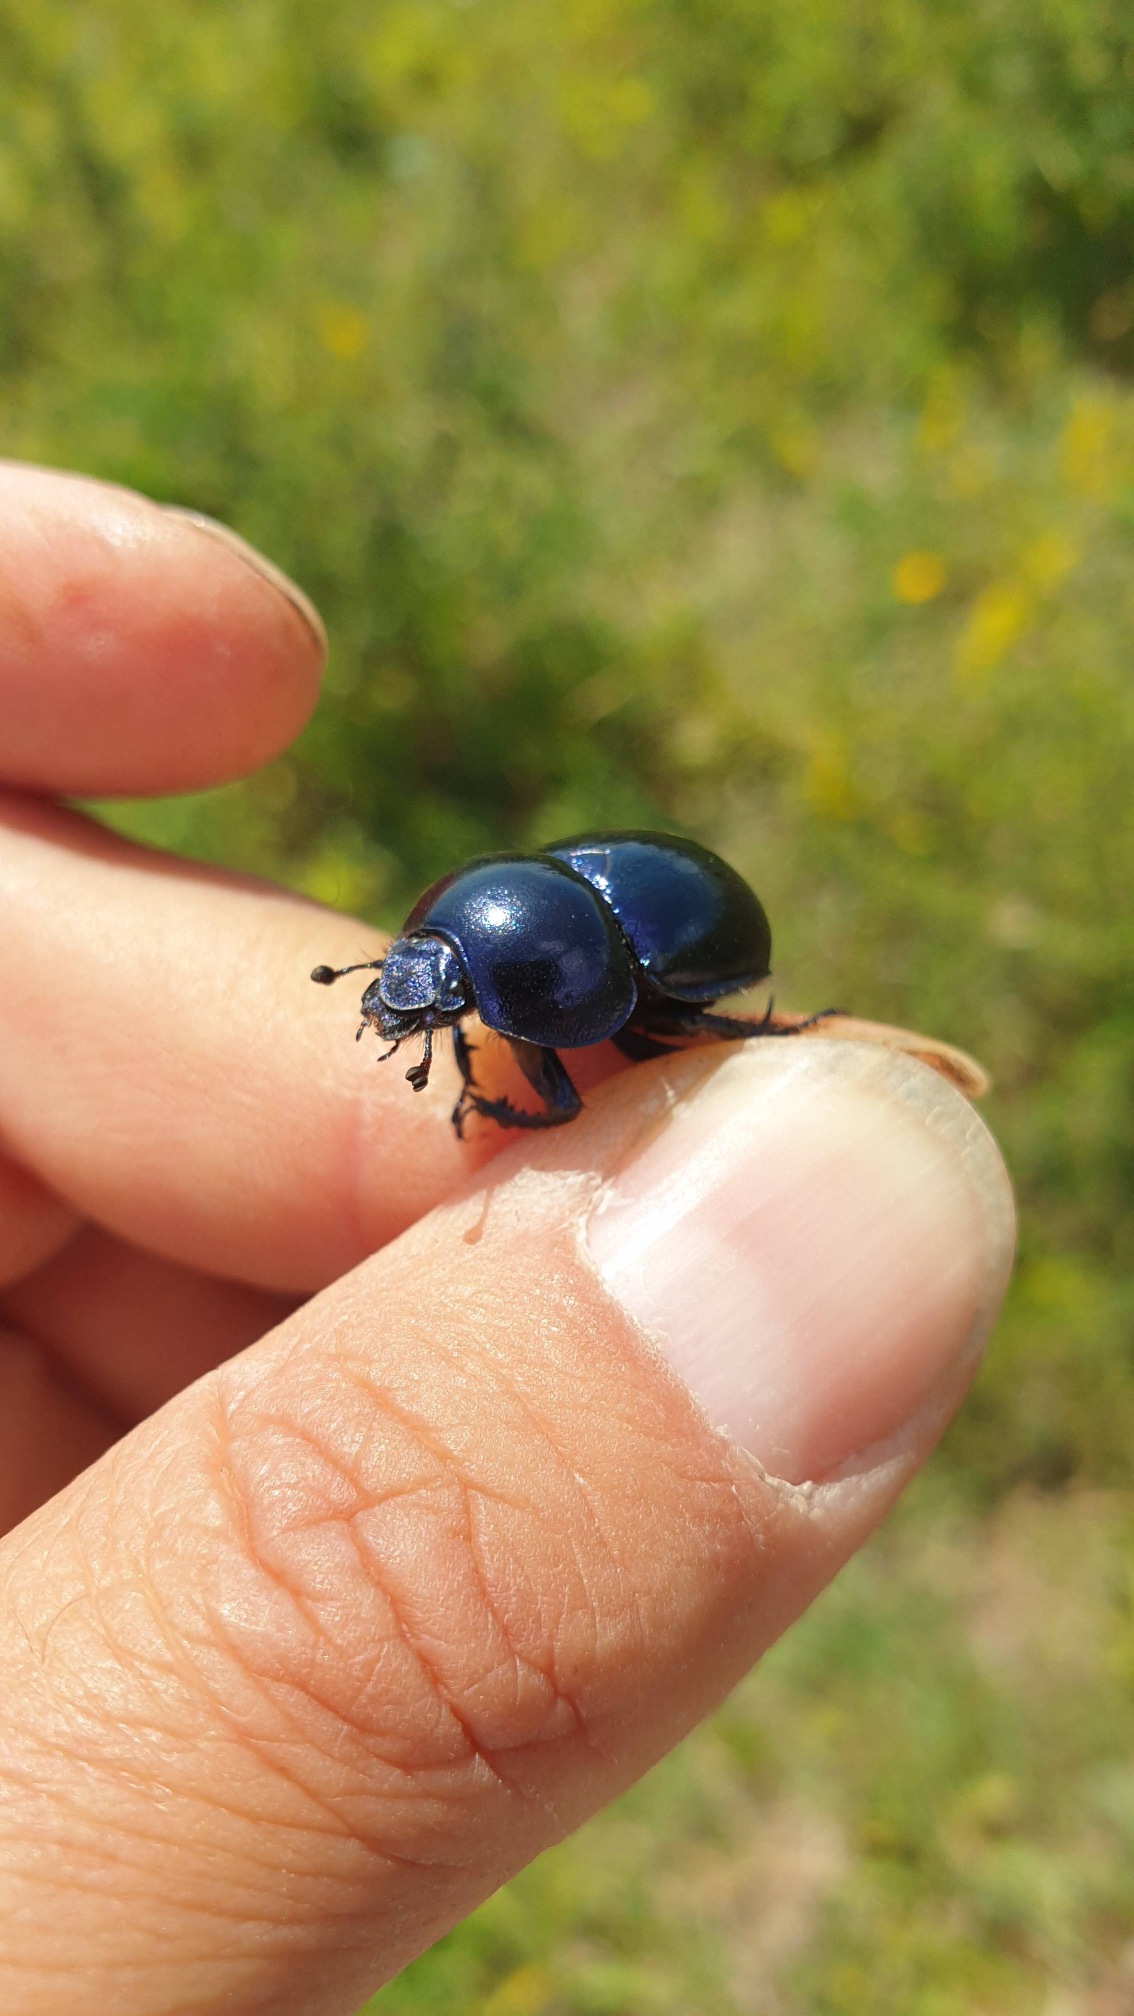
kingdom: Animalia
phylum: Arthropoda
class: Insecta
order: Coleoptera
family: Geotrupidae
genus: Trypocopris
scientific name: Trypocopris vernalis
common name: Glat skarnbasse
